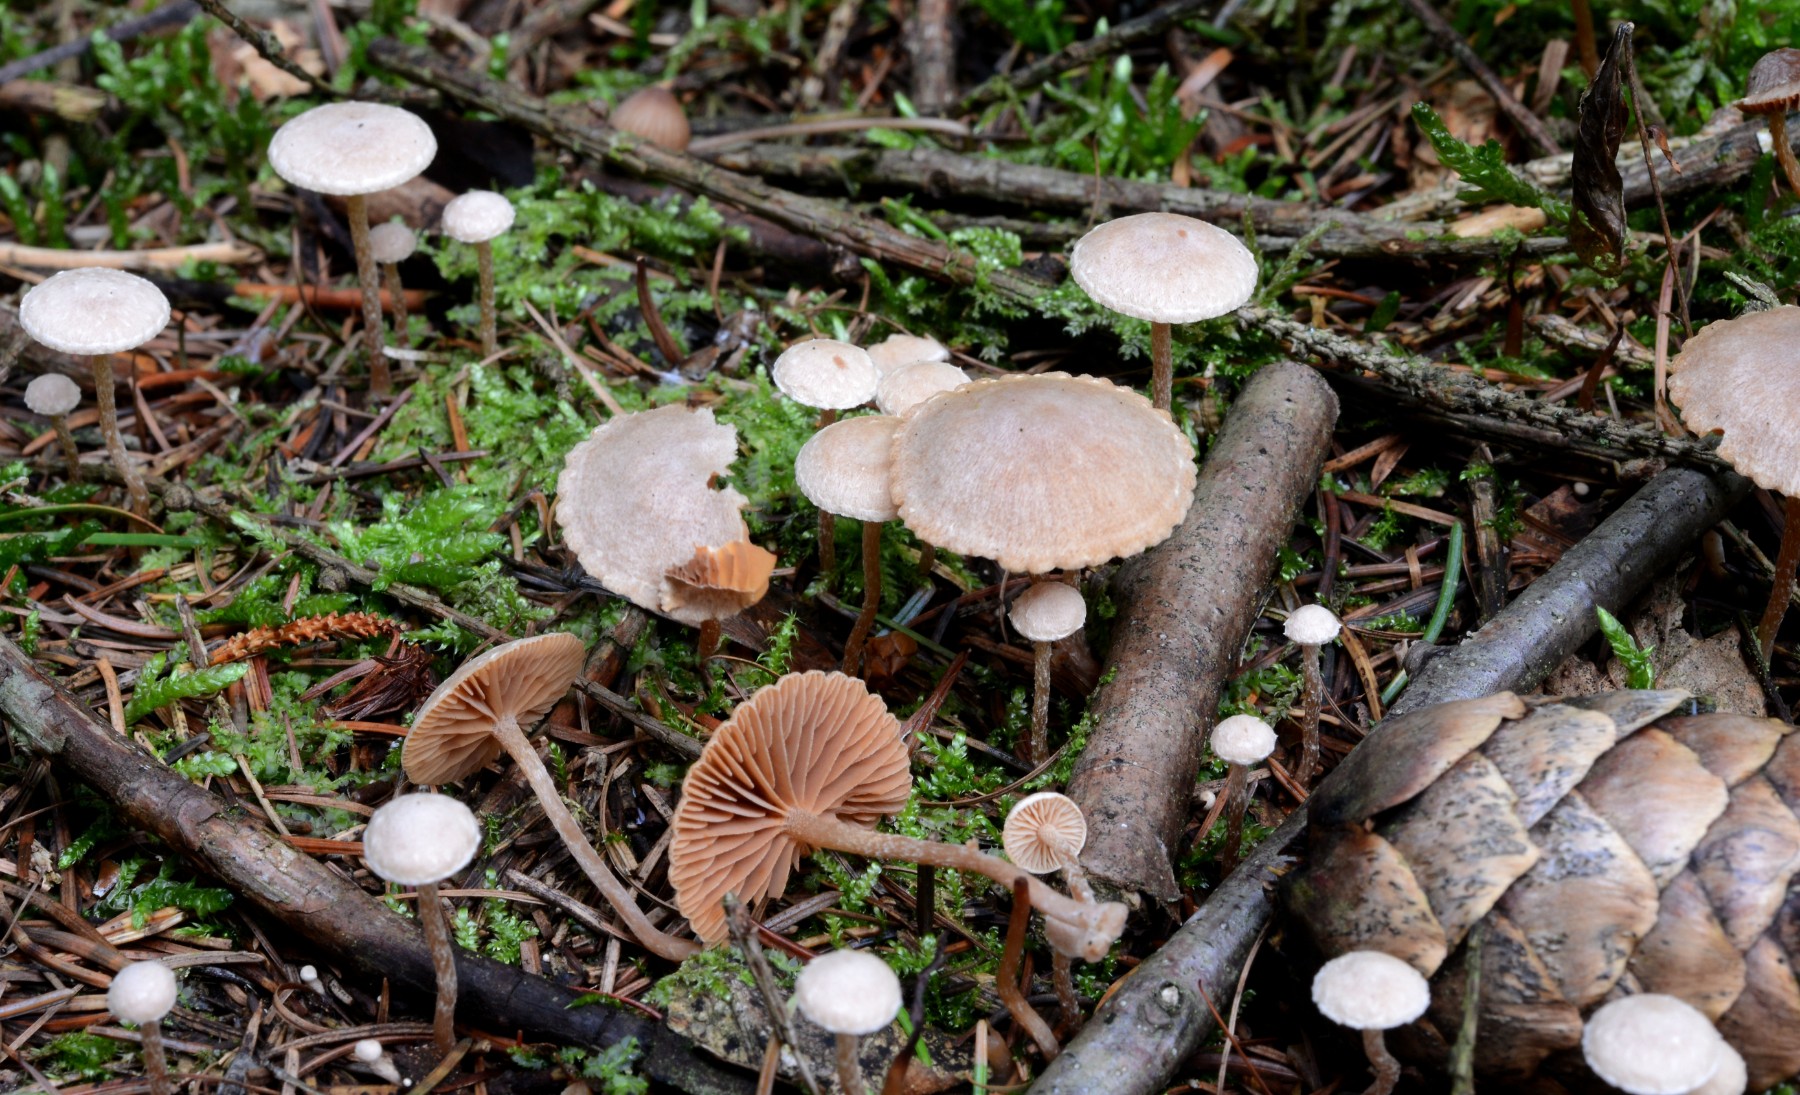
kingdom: Fungi
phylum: Basidiomycota
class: Agaricomycetes
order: Agaricales
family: Tubariaceae
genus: Tubaria
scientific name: Tubaria conspersa
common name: bleg fnughat
